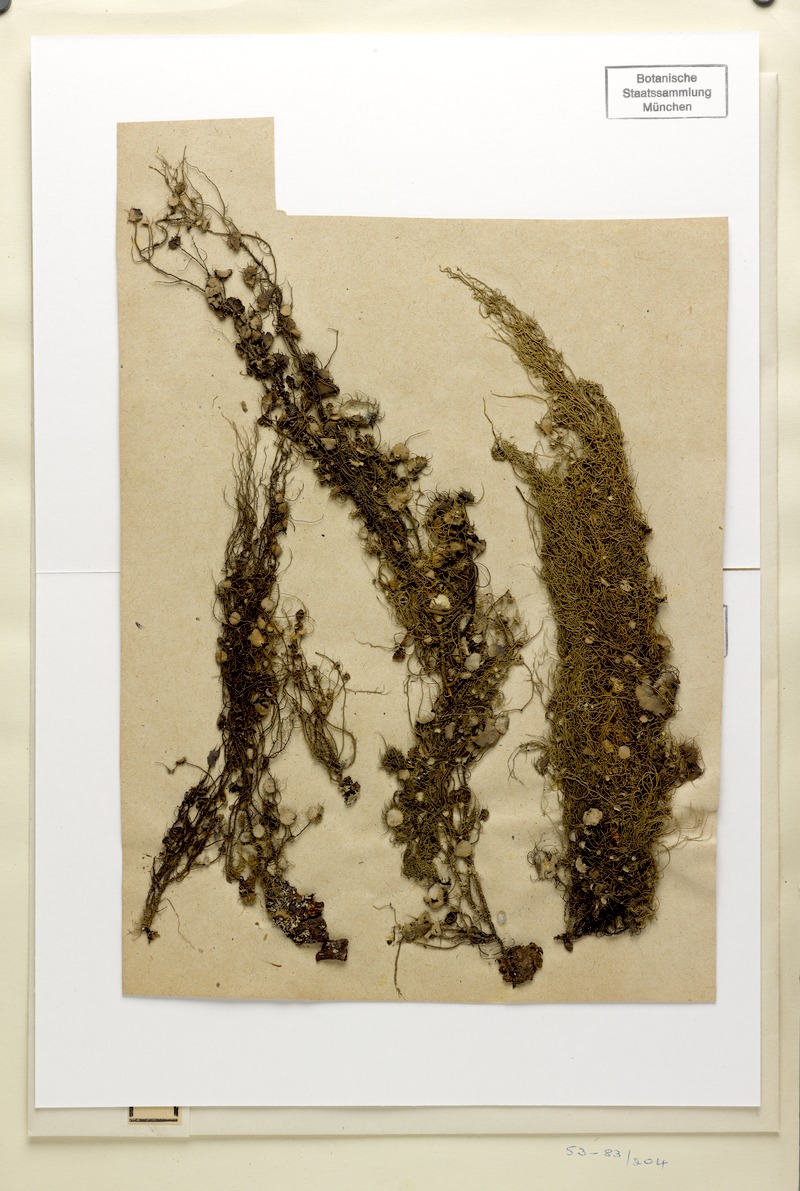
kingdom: Fungi
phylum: Ascomycota
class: Lecanoromycetes
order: Lecanorales
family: Parmeliaceae
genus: Usnea
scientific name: Usnea glauca
